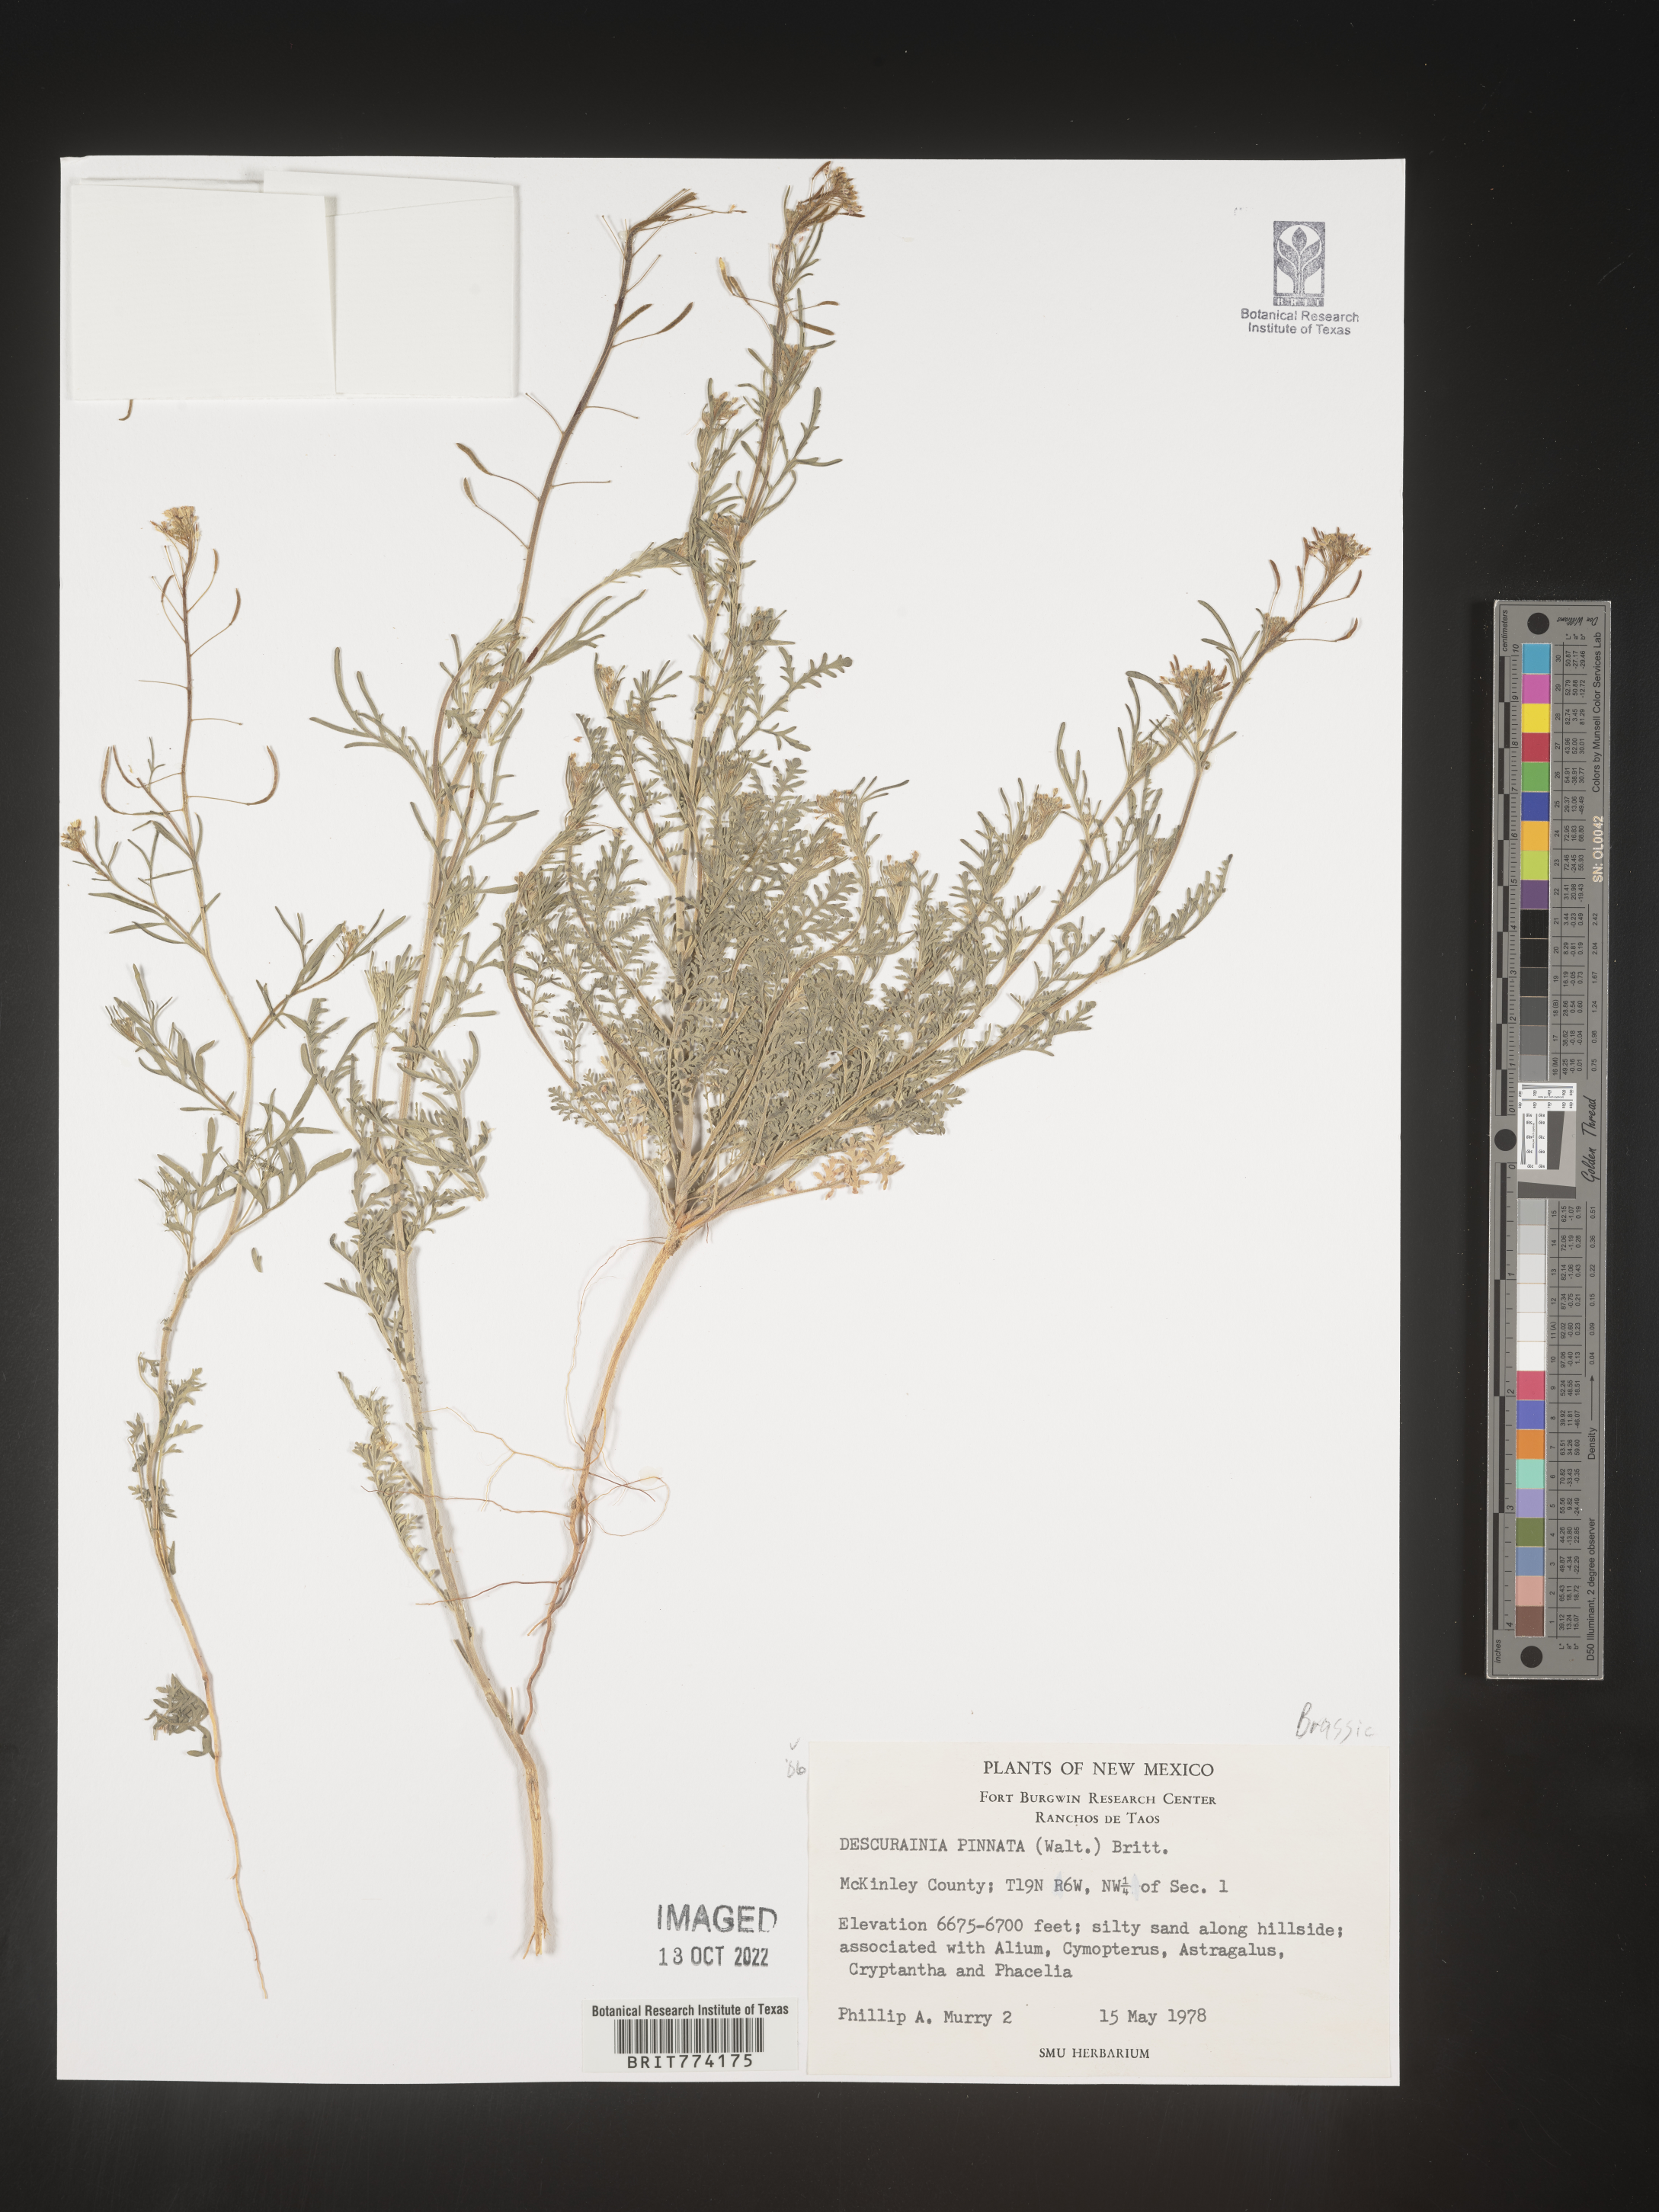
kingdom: Plantae
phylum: Tracheophyta
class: Magnoliopsida
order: Brassicales
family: Brassicaceae
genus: Descurainia
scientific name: Descurainia pinnata
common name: Western tansy mustard
